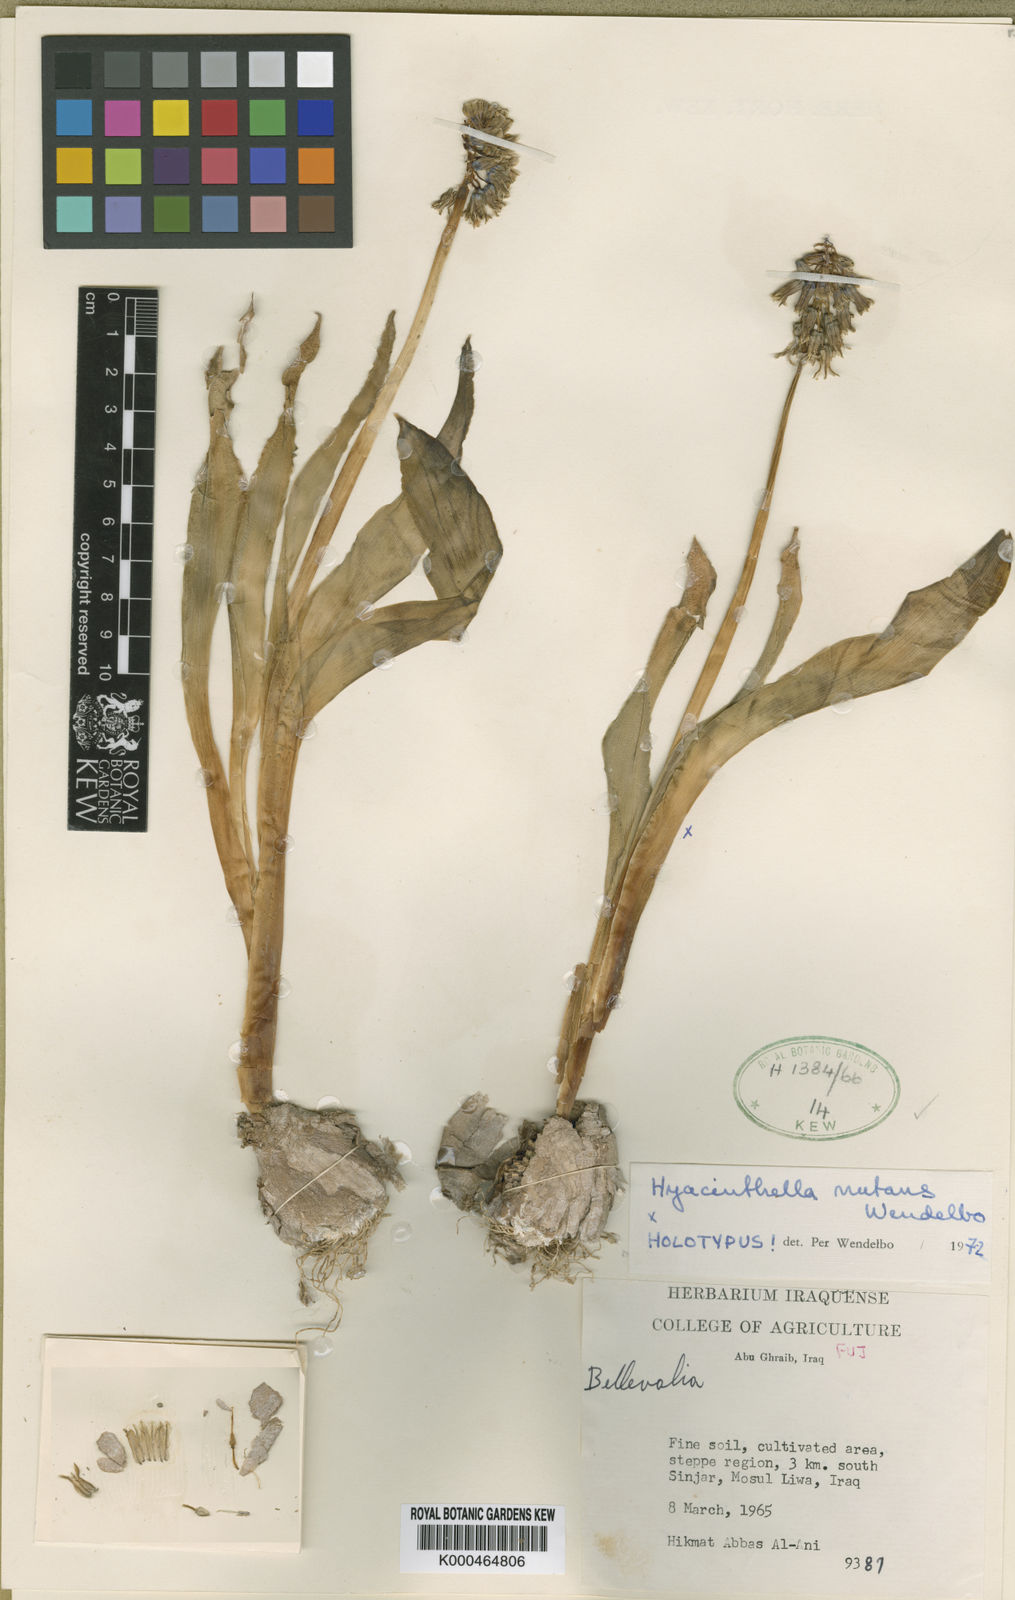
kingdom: Plantae
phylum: Tracheophyta
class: Liliopsida
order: Asparagales
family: Asparagaceae
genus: Alrawia
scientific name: Alrawia nutans
